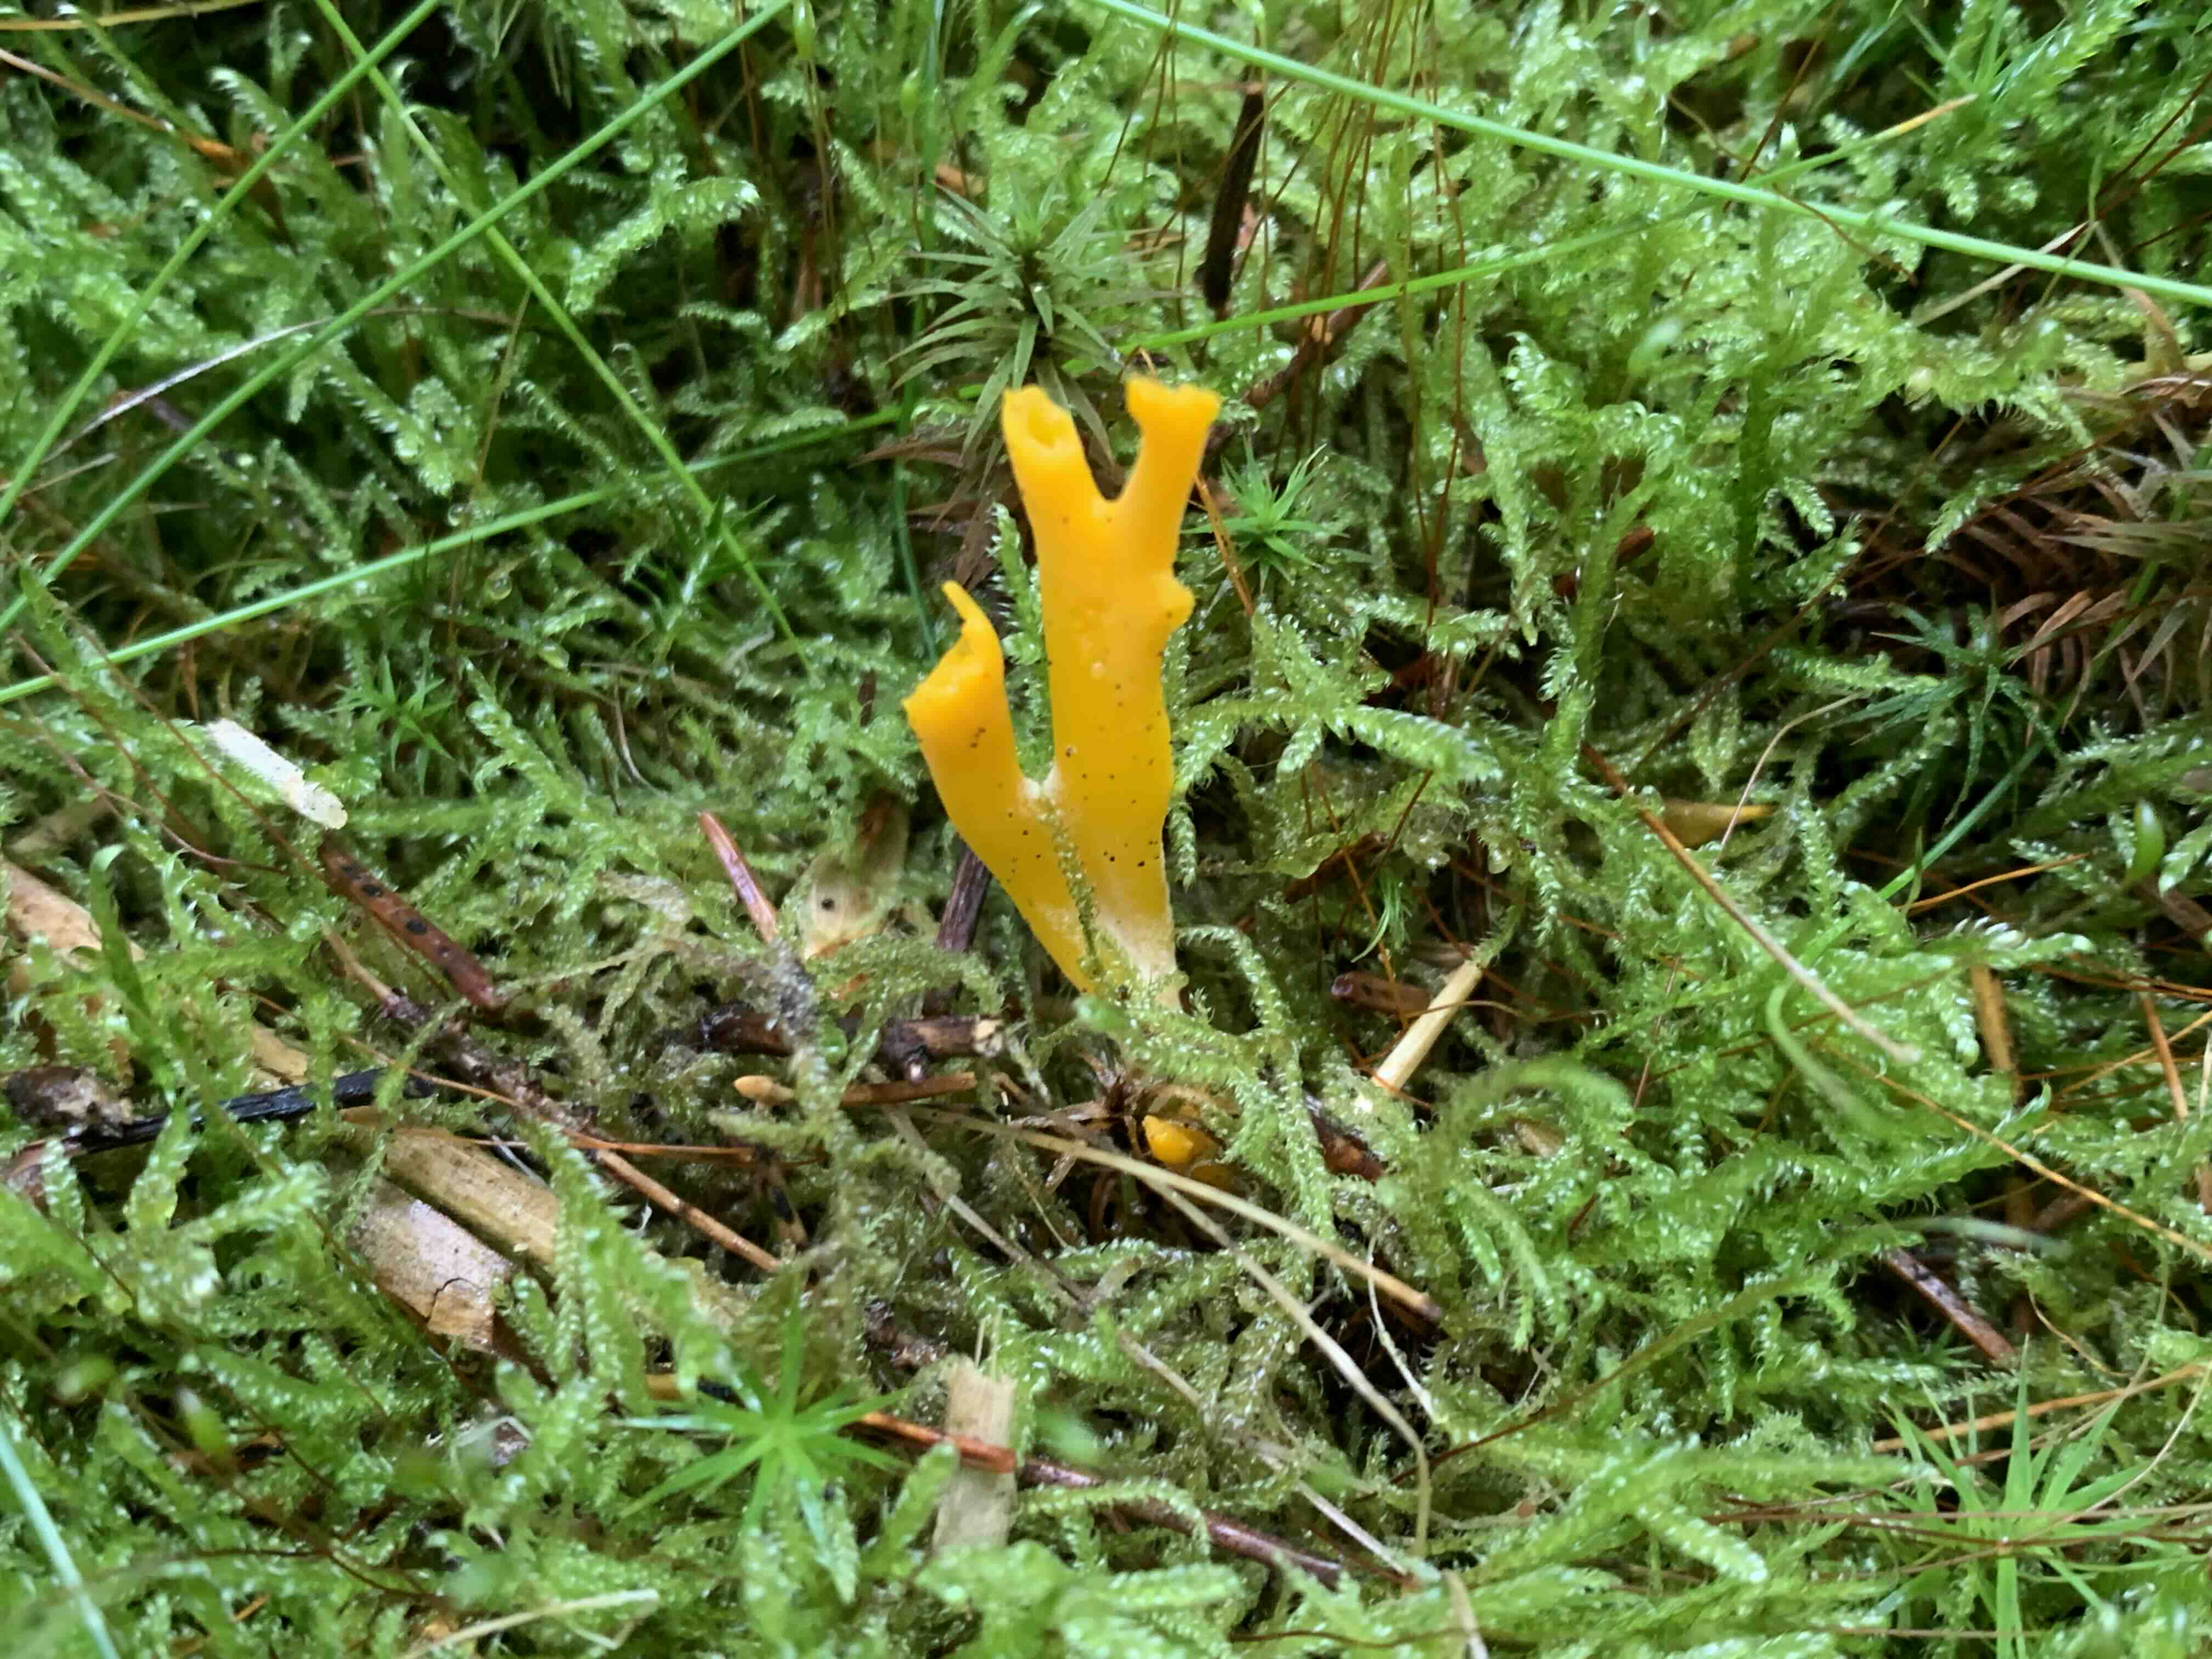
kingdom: Fungi
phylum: Basidiomycota
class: Dacrymycetes
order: Dacrymycetales
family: Dacrymycetaceae
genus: Calocera
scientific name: Calocera viscosa
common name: almindelig guldgaffel
